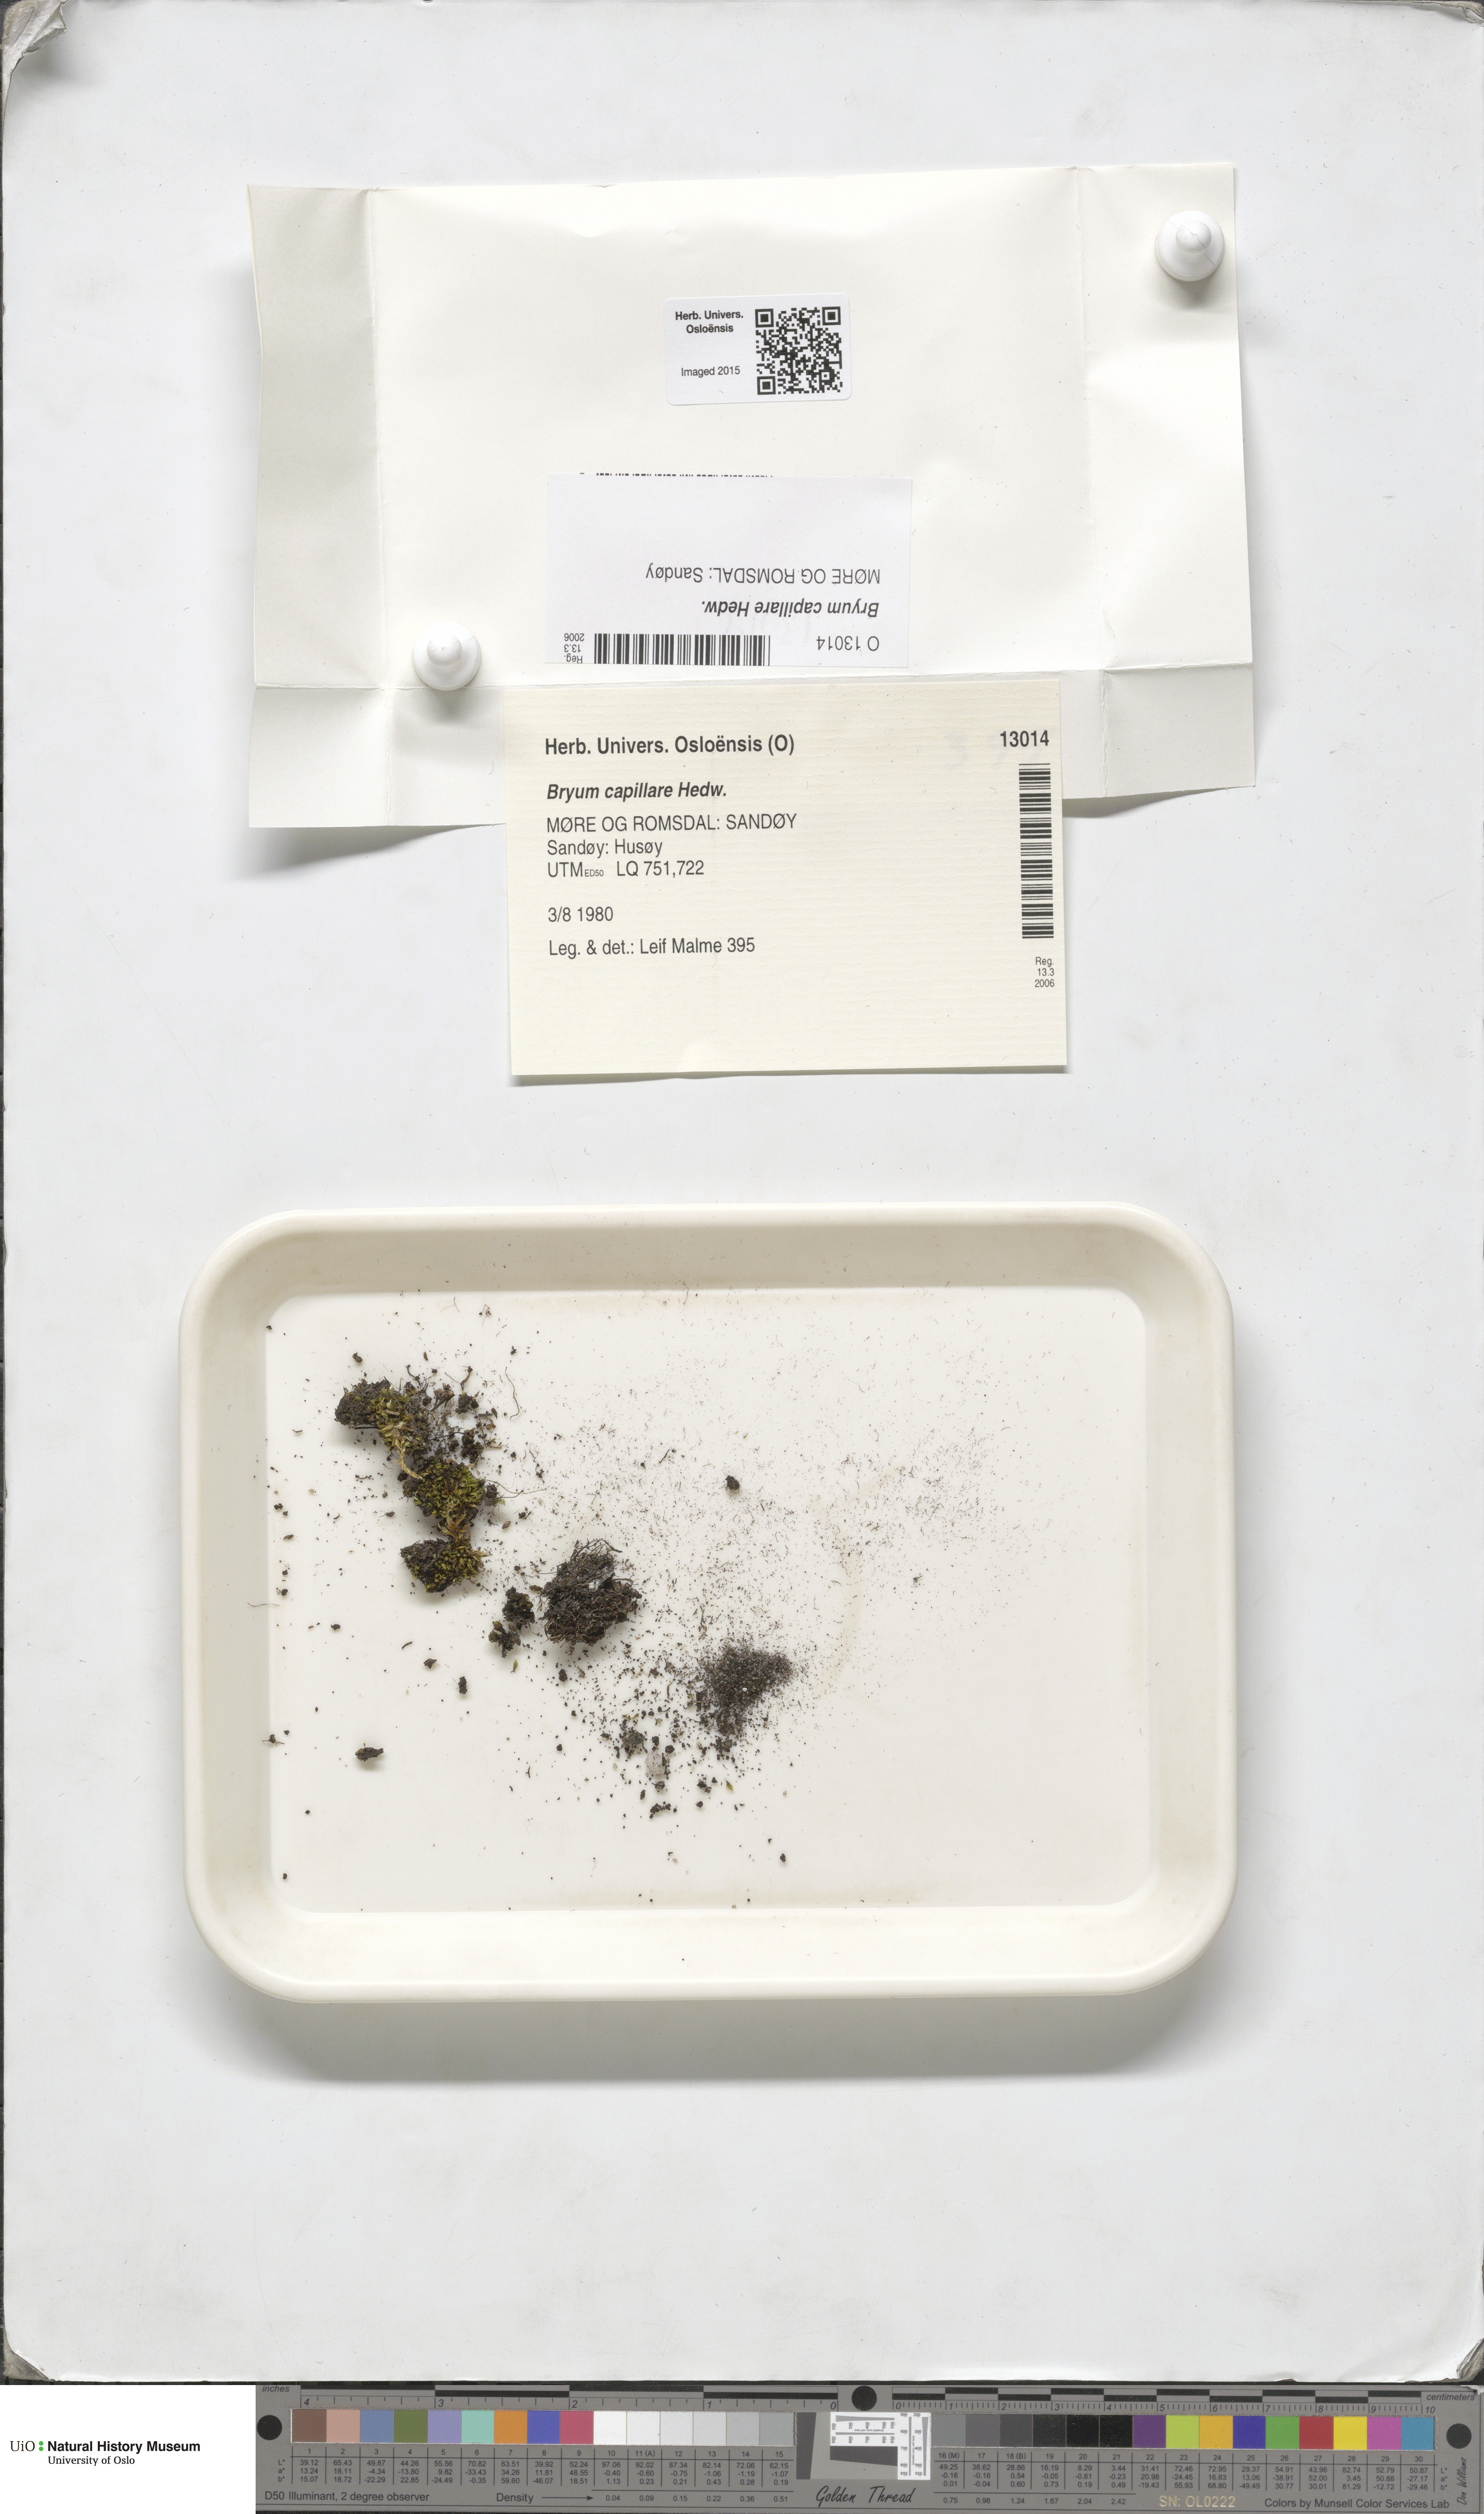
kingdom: Plantae
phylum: Bryophyta
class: Bryopsida
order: Bryales
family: Bryaceae
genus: Rosulabryum
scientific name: Rosulabryum capillare
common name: Capillary thread-moss
